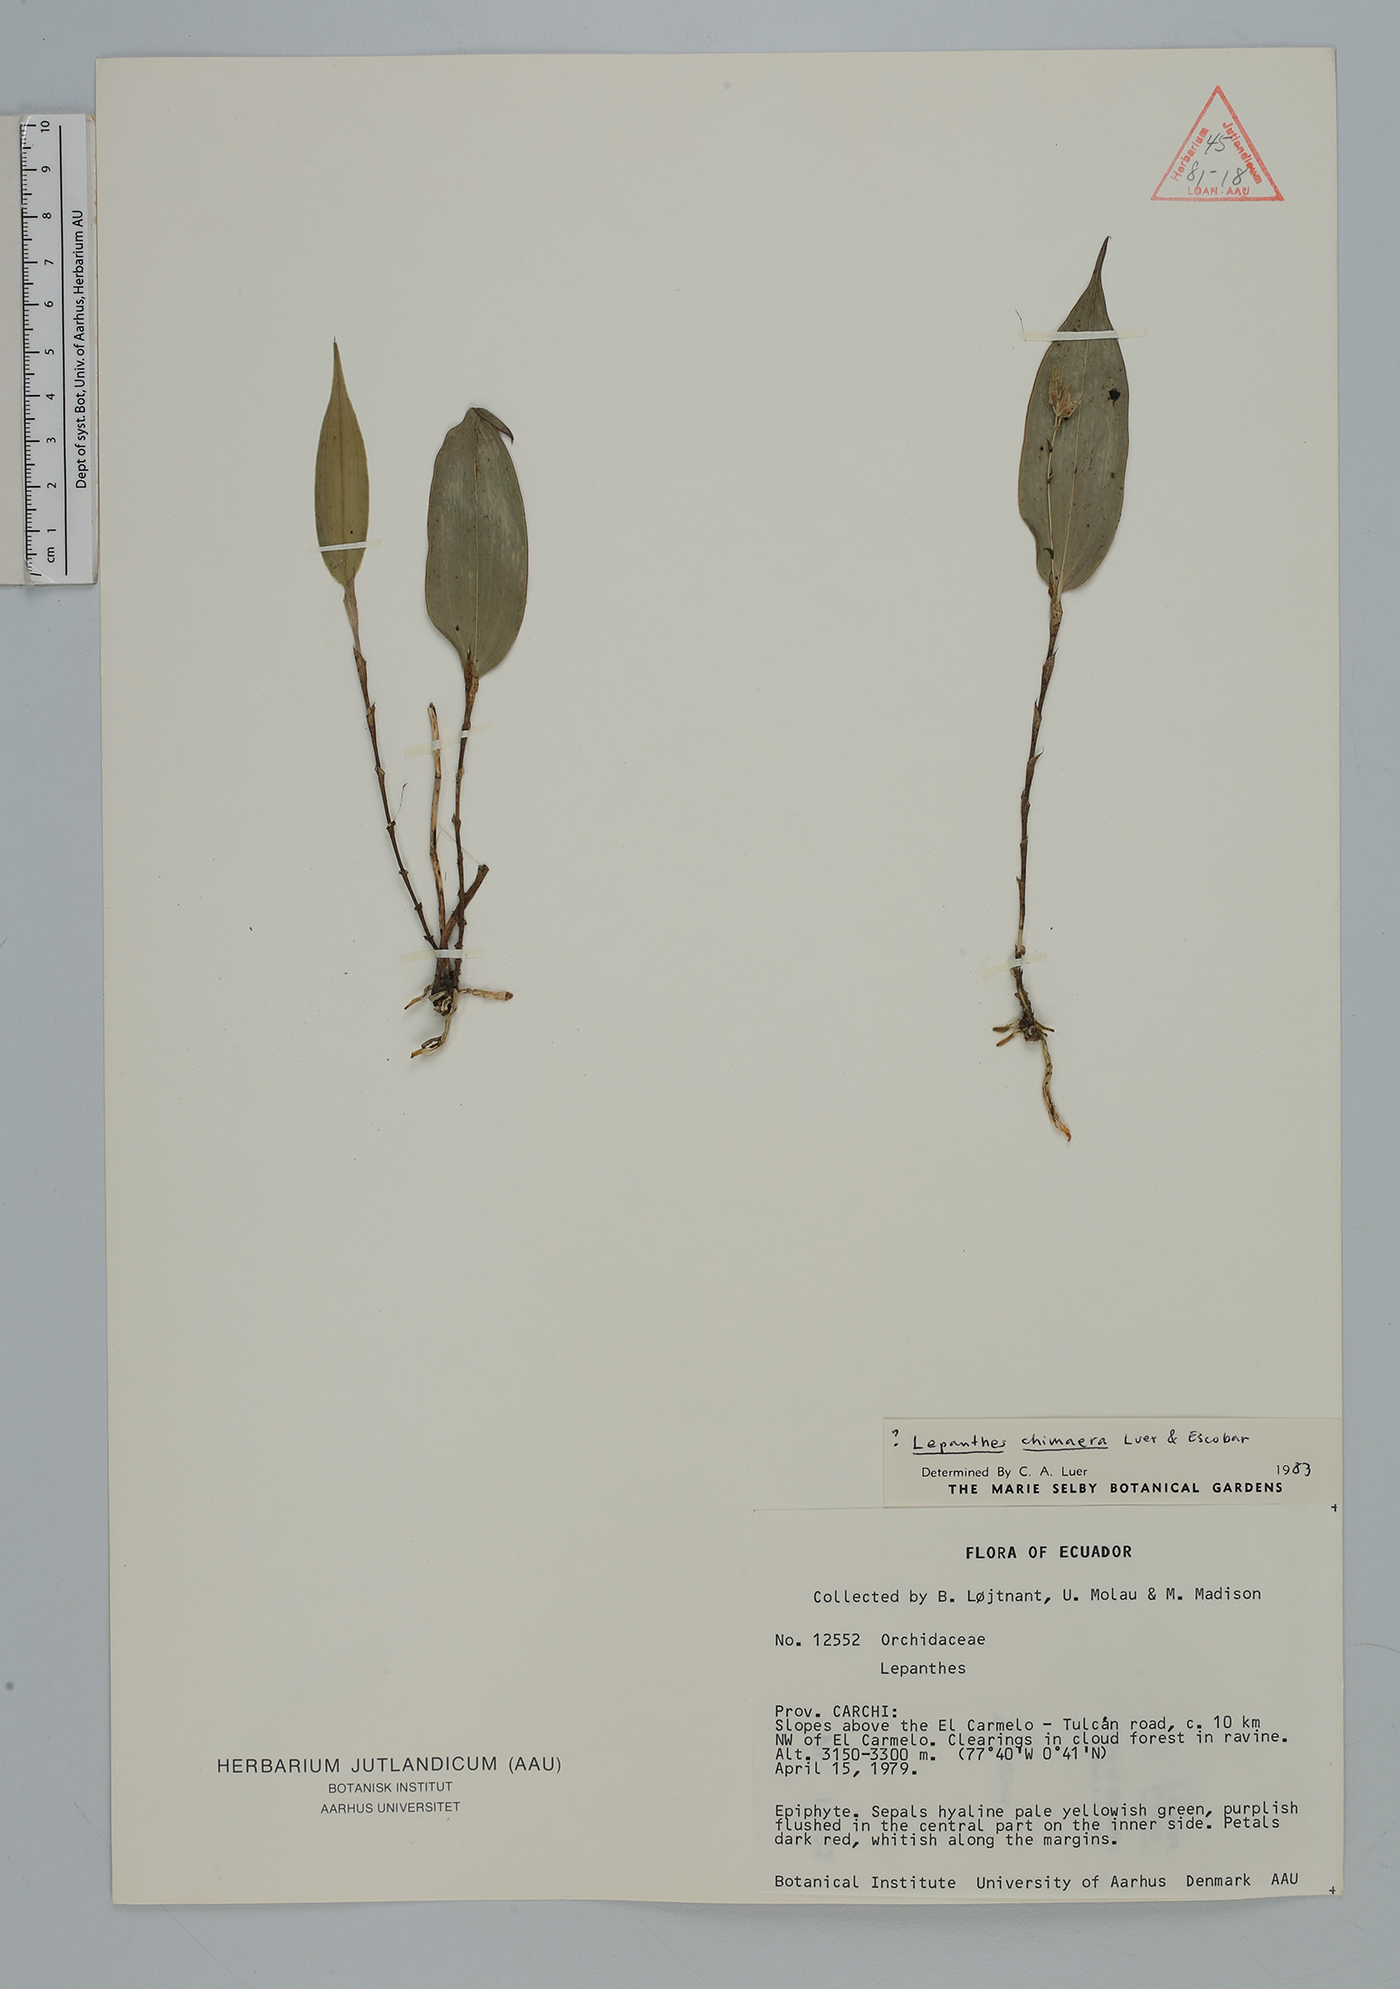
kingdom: Plantae
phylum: Tracheophyta
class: Liliopsida
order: Asparagales
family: Orchidaceae
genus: Lepanthes
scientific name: Lepanthes
